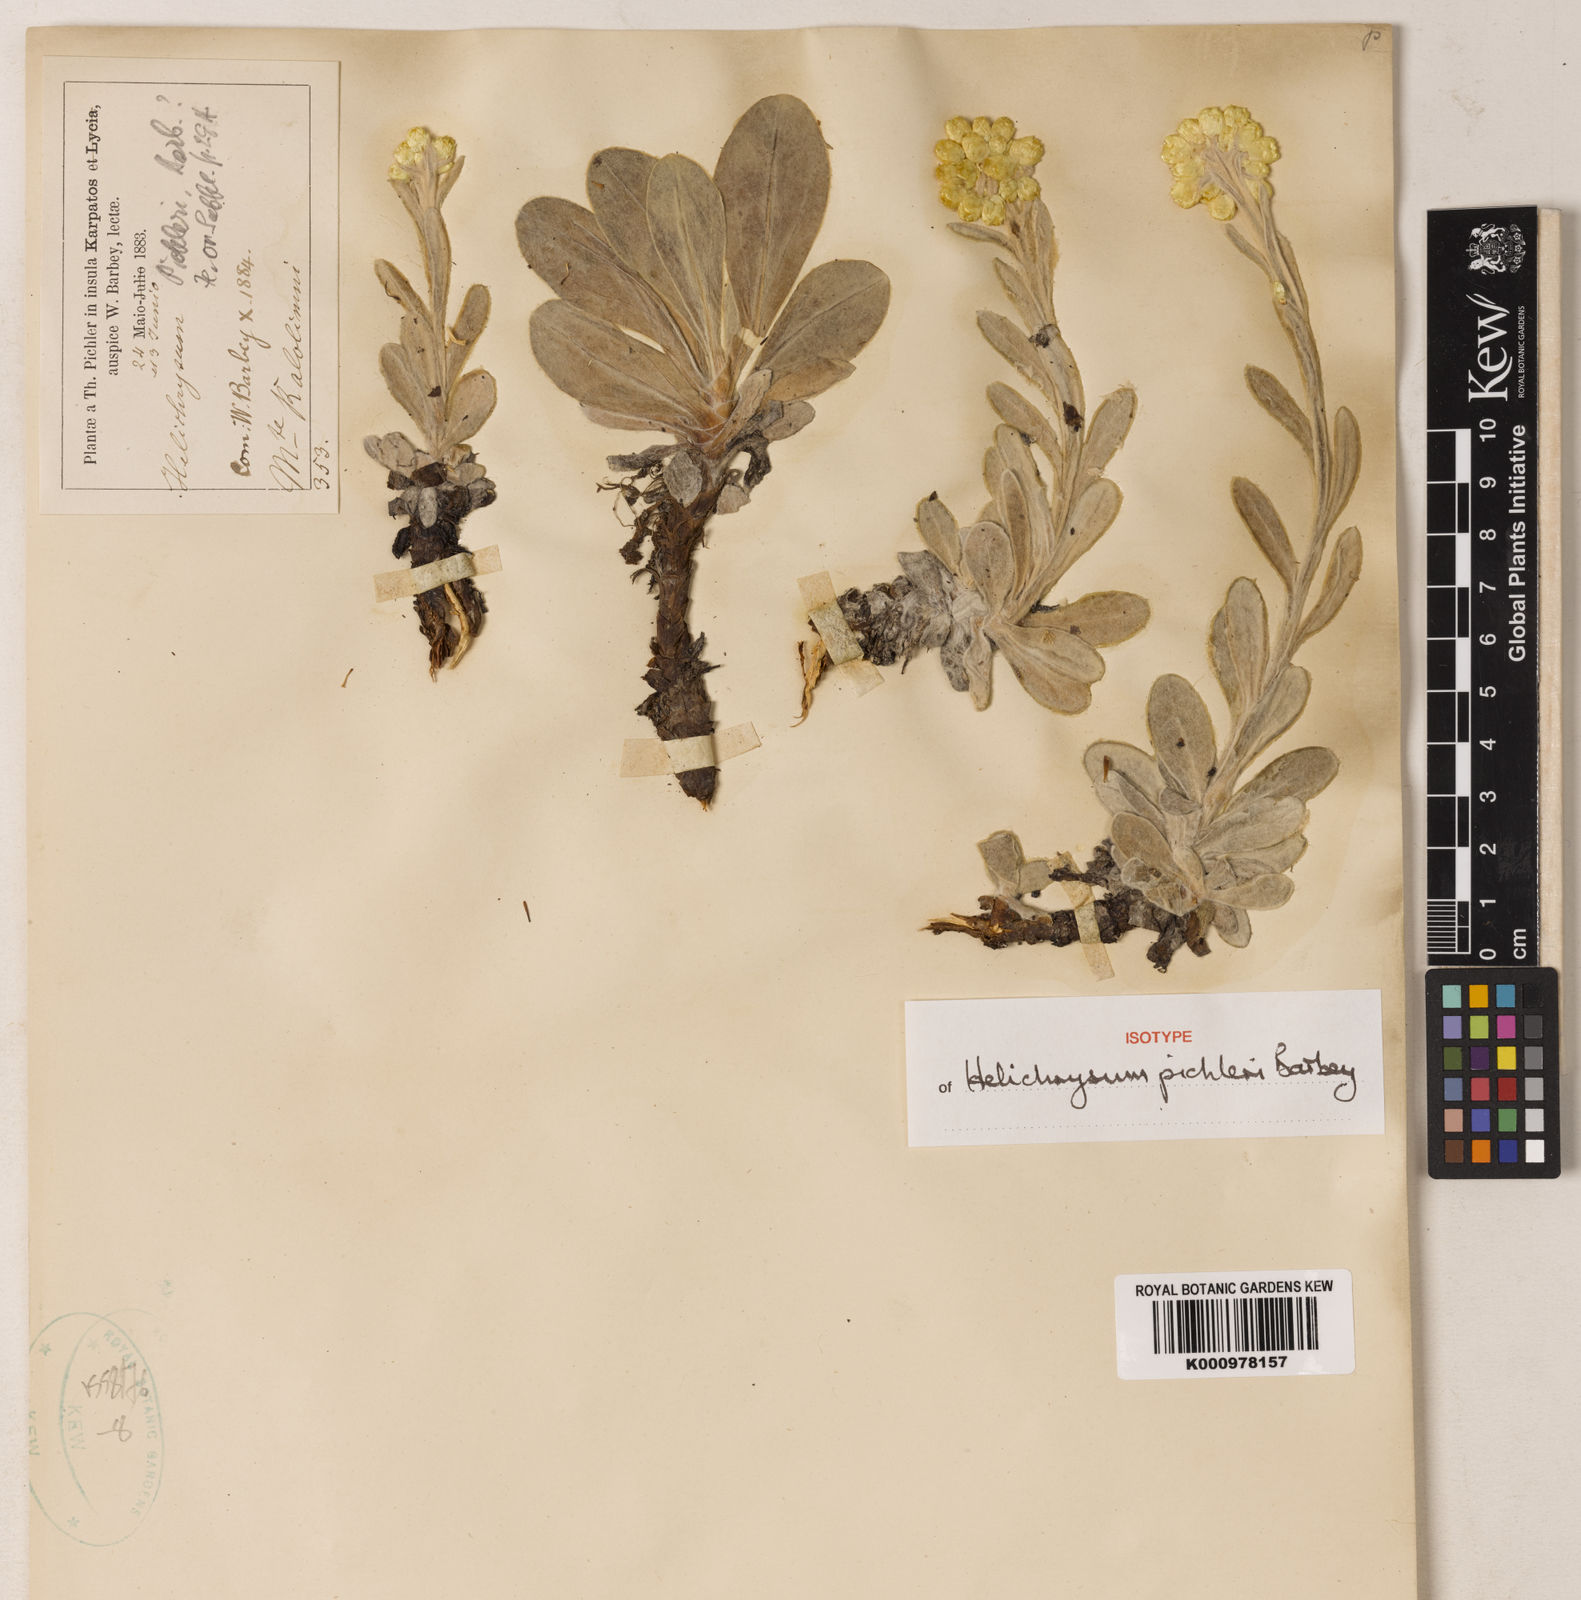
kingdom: Plantae
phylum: Tracheophyta
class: Magnoliopsida
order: Asterales
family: Asteraceae
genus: Helichrysum
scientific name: Helichrysum orientale
